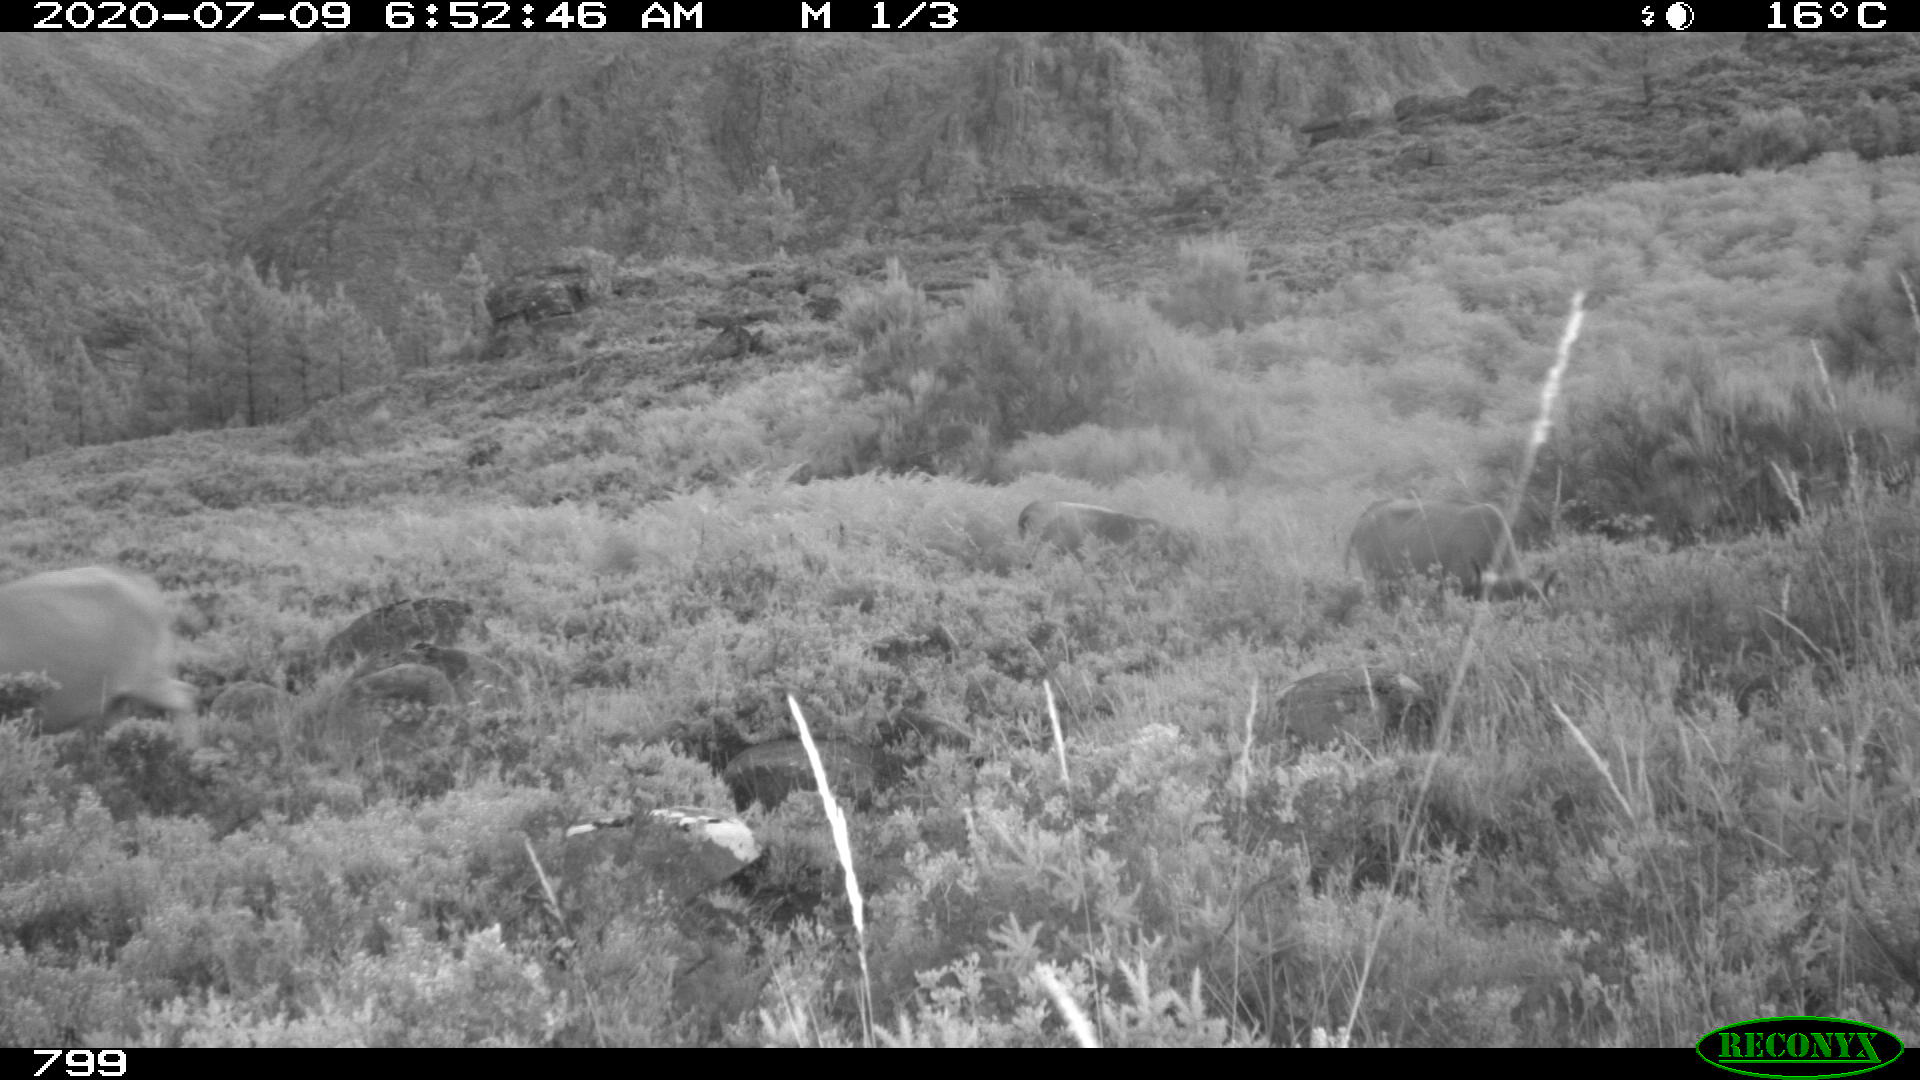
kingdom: Animalia
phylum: Chordata
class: Mammalia
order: Artiodactyla
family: Bovidae
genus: Bos
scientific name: Bos taurus
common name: Domesticated cattle
